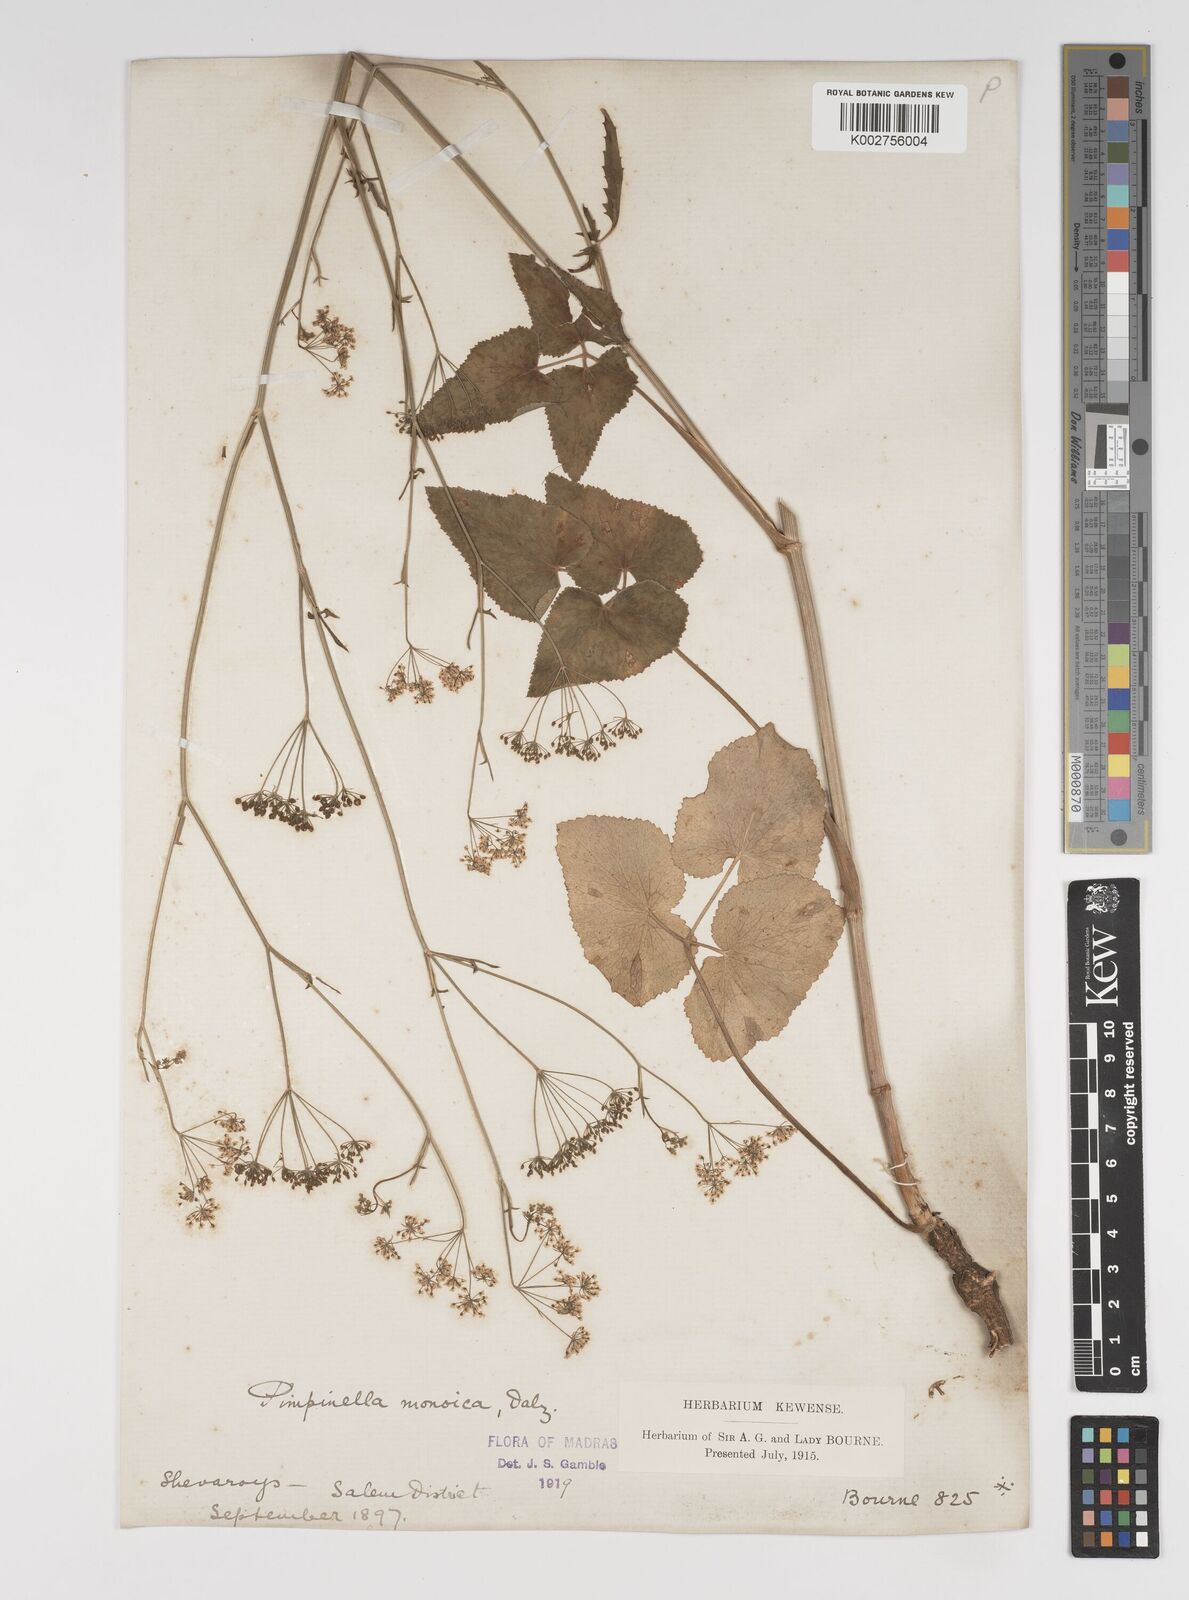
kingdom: Plantae
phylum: Tracheophyta
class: Magnoliopsida
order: Apiales
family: Apiaceae
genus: Pimpinella
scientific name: Pimpinella wallichiana
